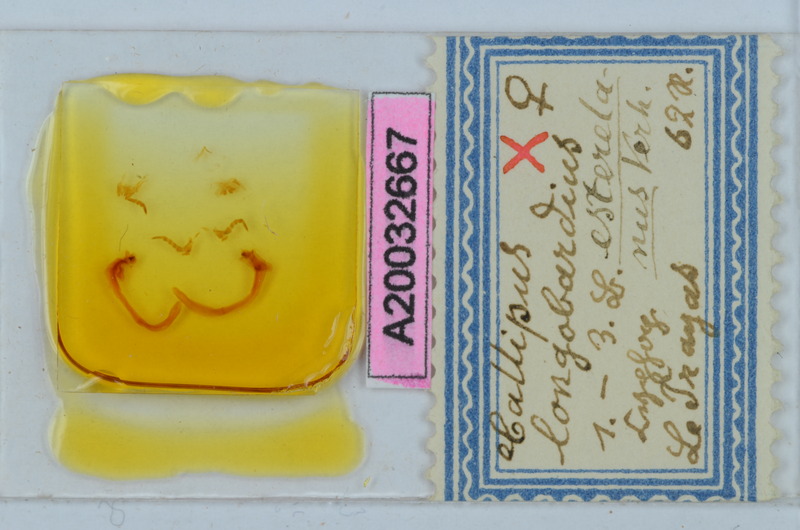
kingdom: Animalia
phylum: Arthropoda
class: Diplopoda
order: Callipodida
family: Callipodidae
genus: Callipus
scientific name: Callipus foetidissimus
